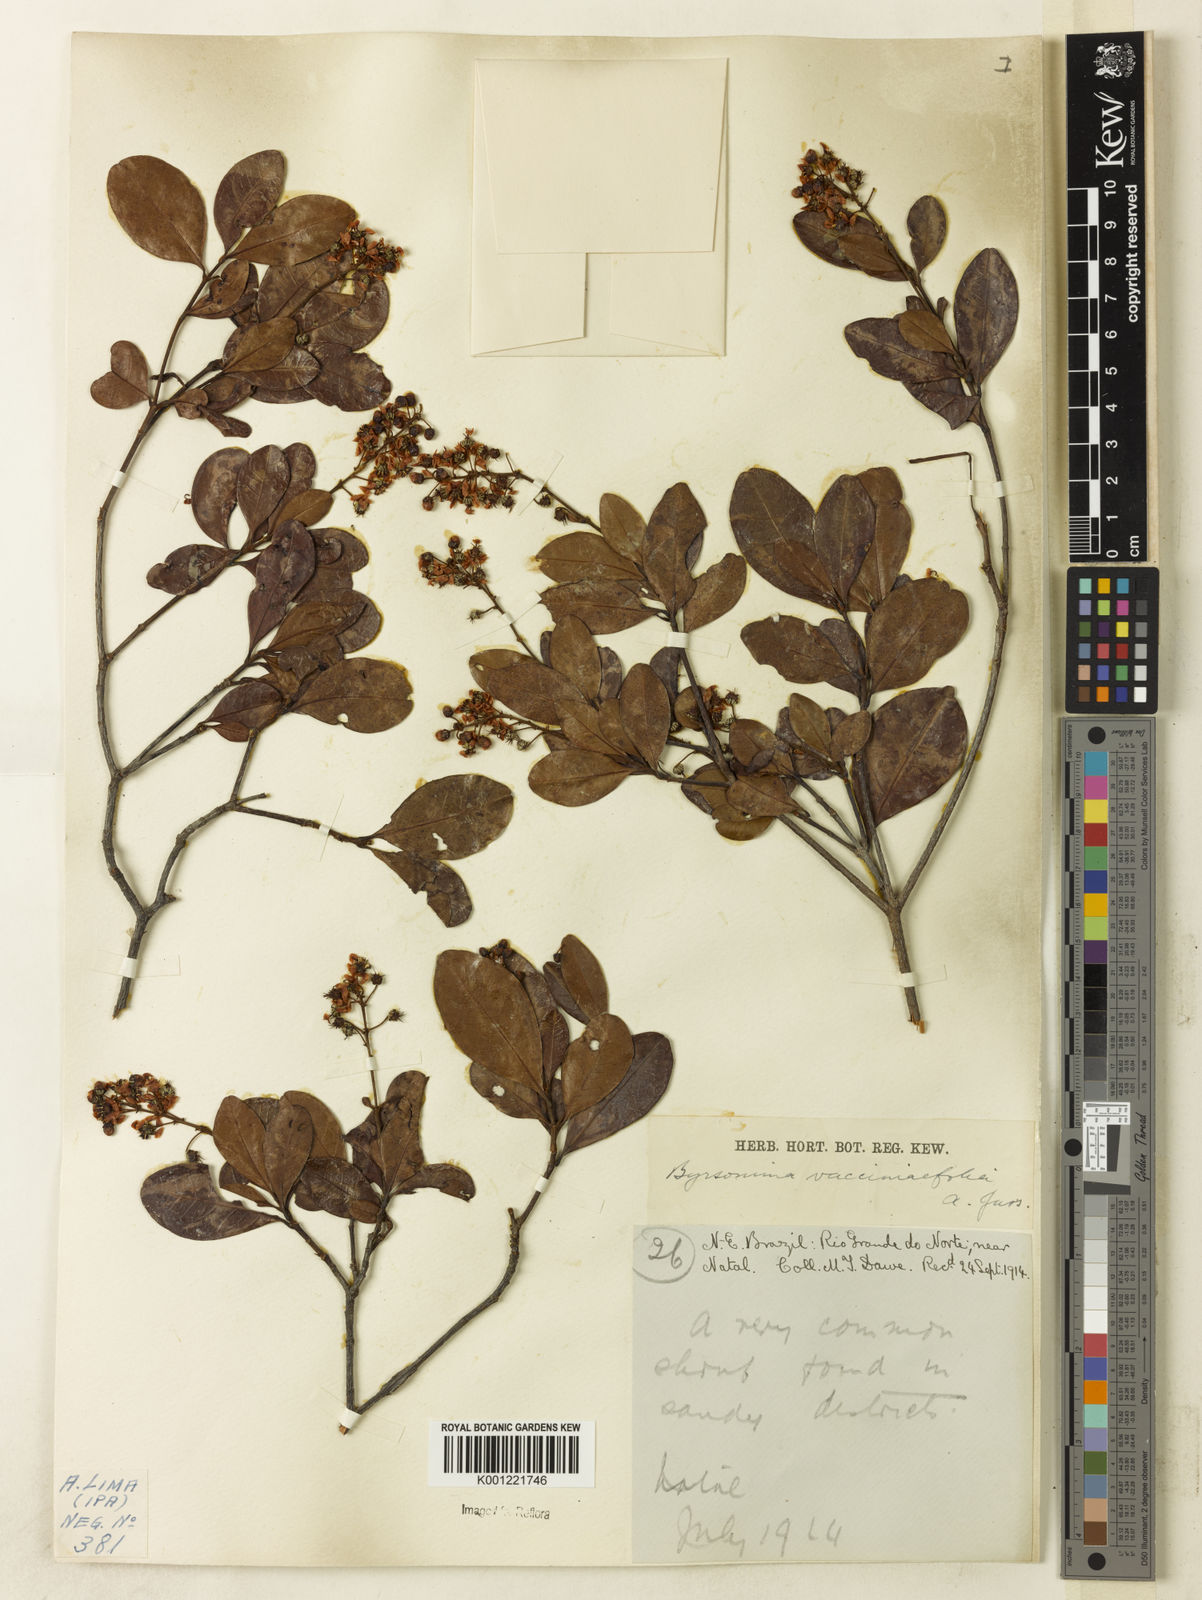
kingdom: Plantae
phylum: Tracheophyta
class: Magnoliopsida
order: Malpighiales
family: Malpighiaceae
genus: Byrsonima
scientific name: Byrsonima vacciniifolia
